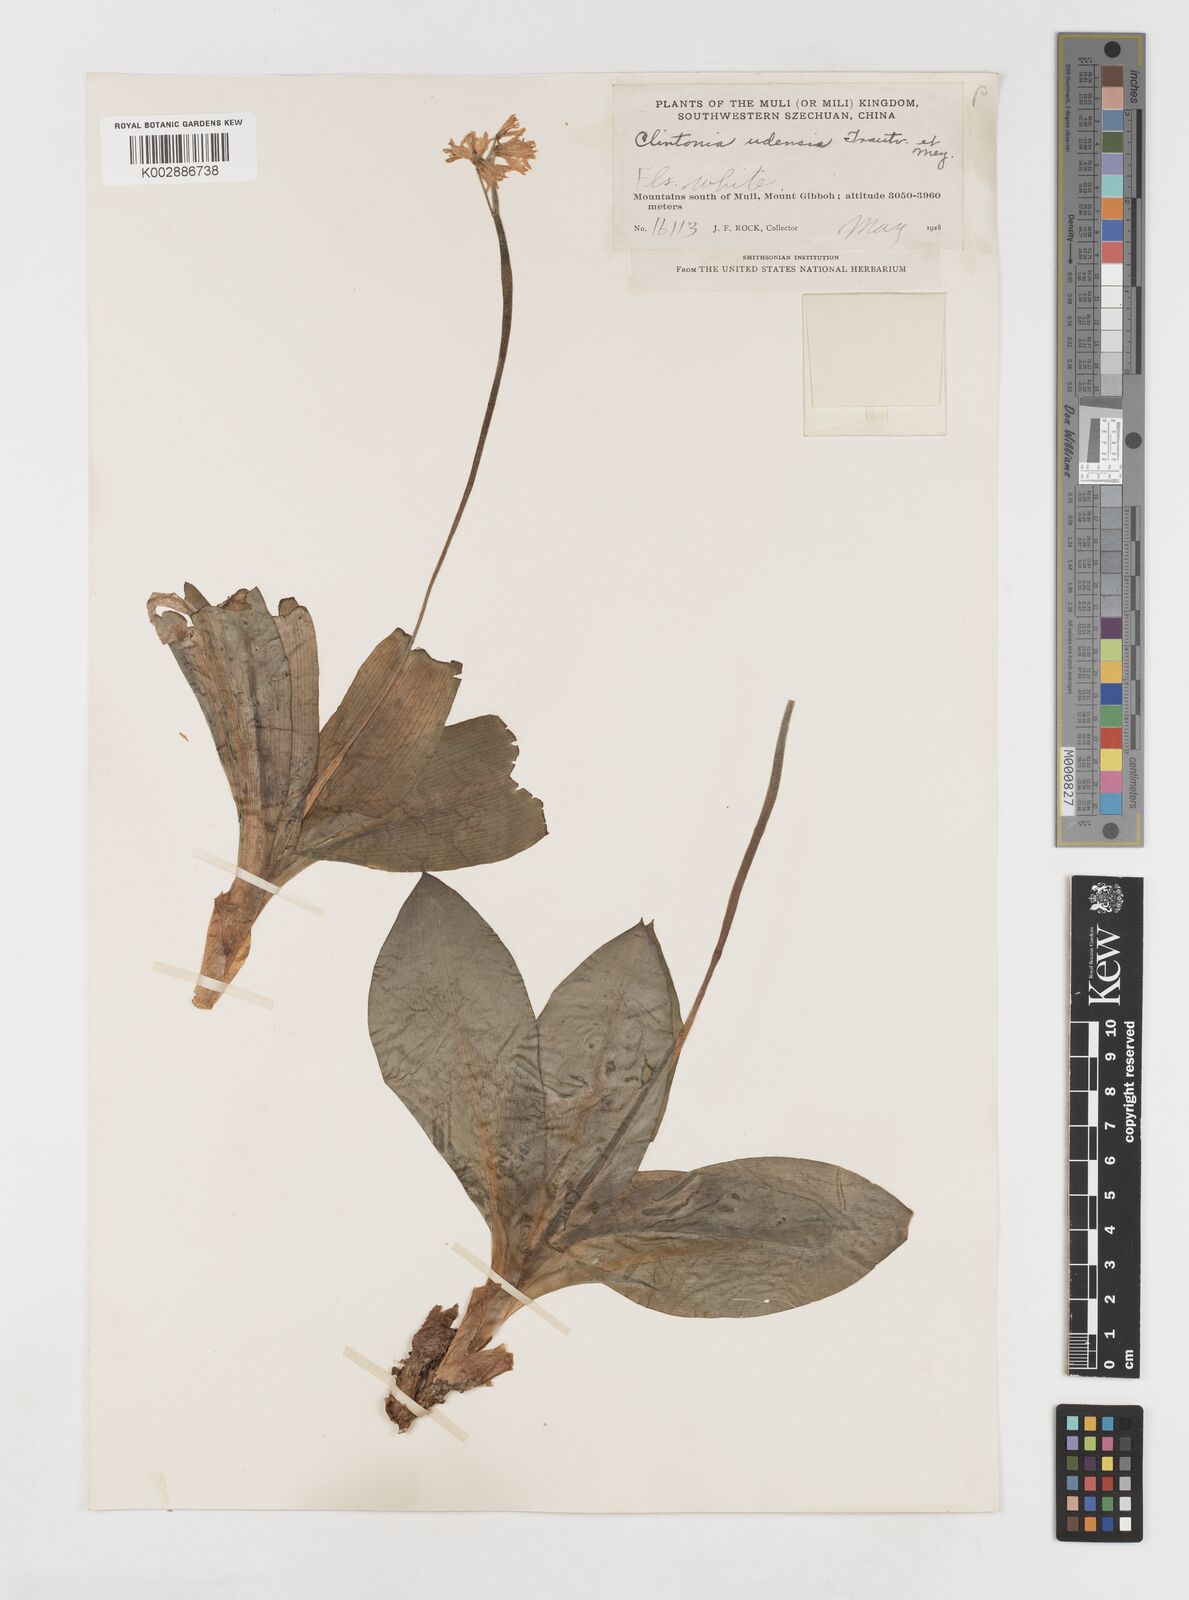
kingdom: Plantae
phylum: Tracheophyta
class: Liliopsida
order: Liliales
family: Liliaceae
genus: Clintonia
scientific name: Clintonia udensis
